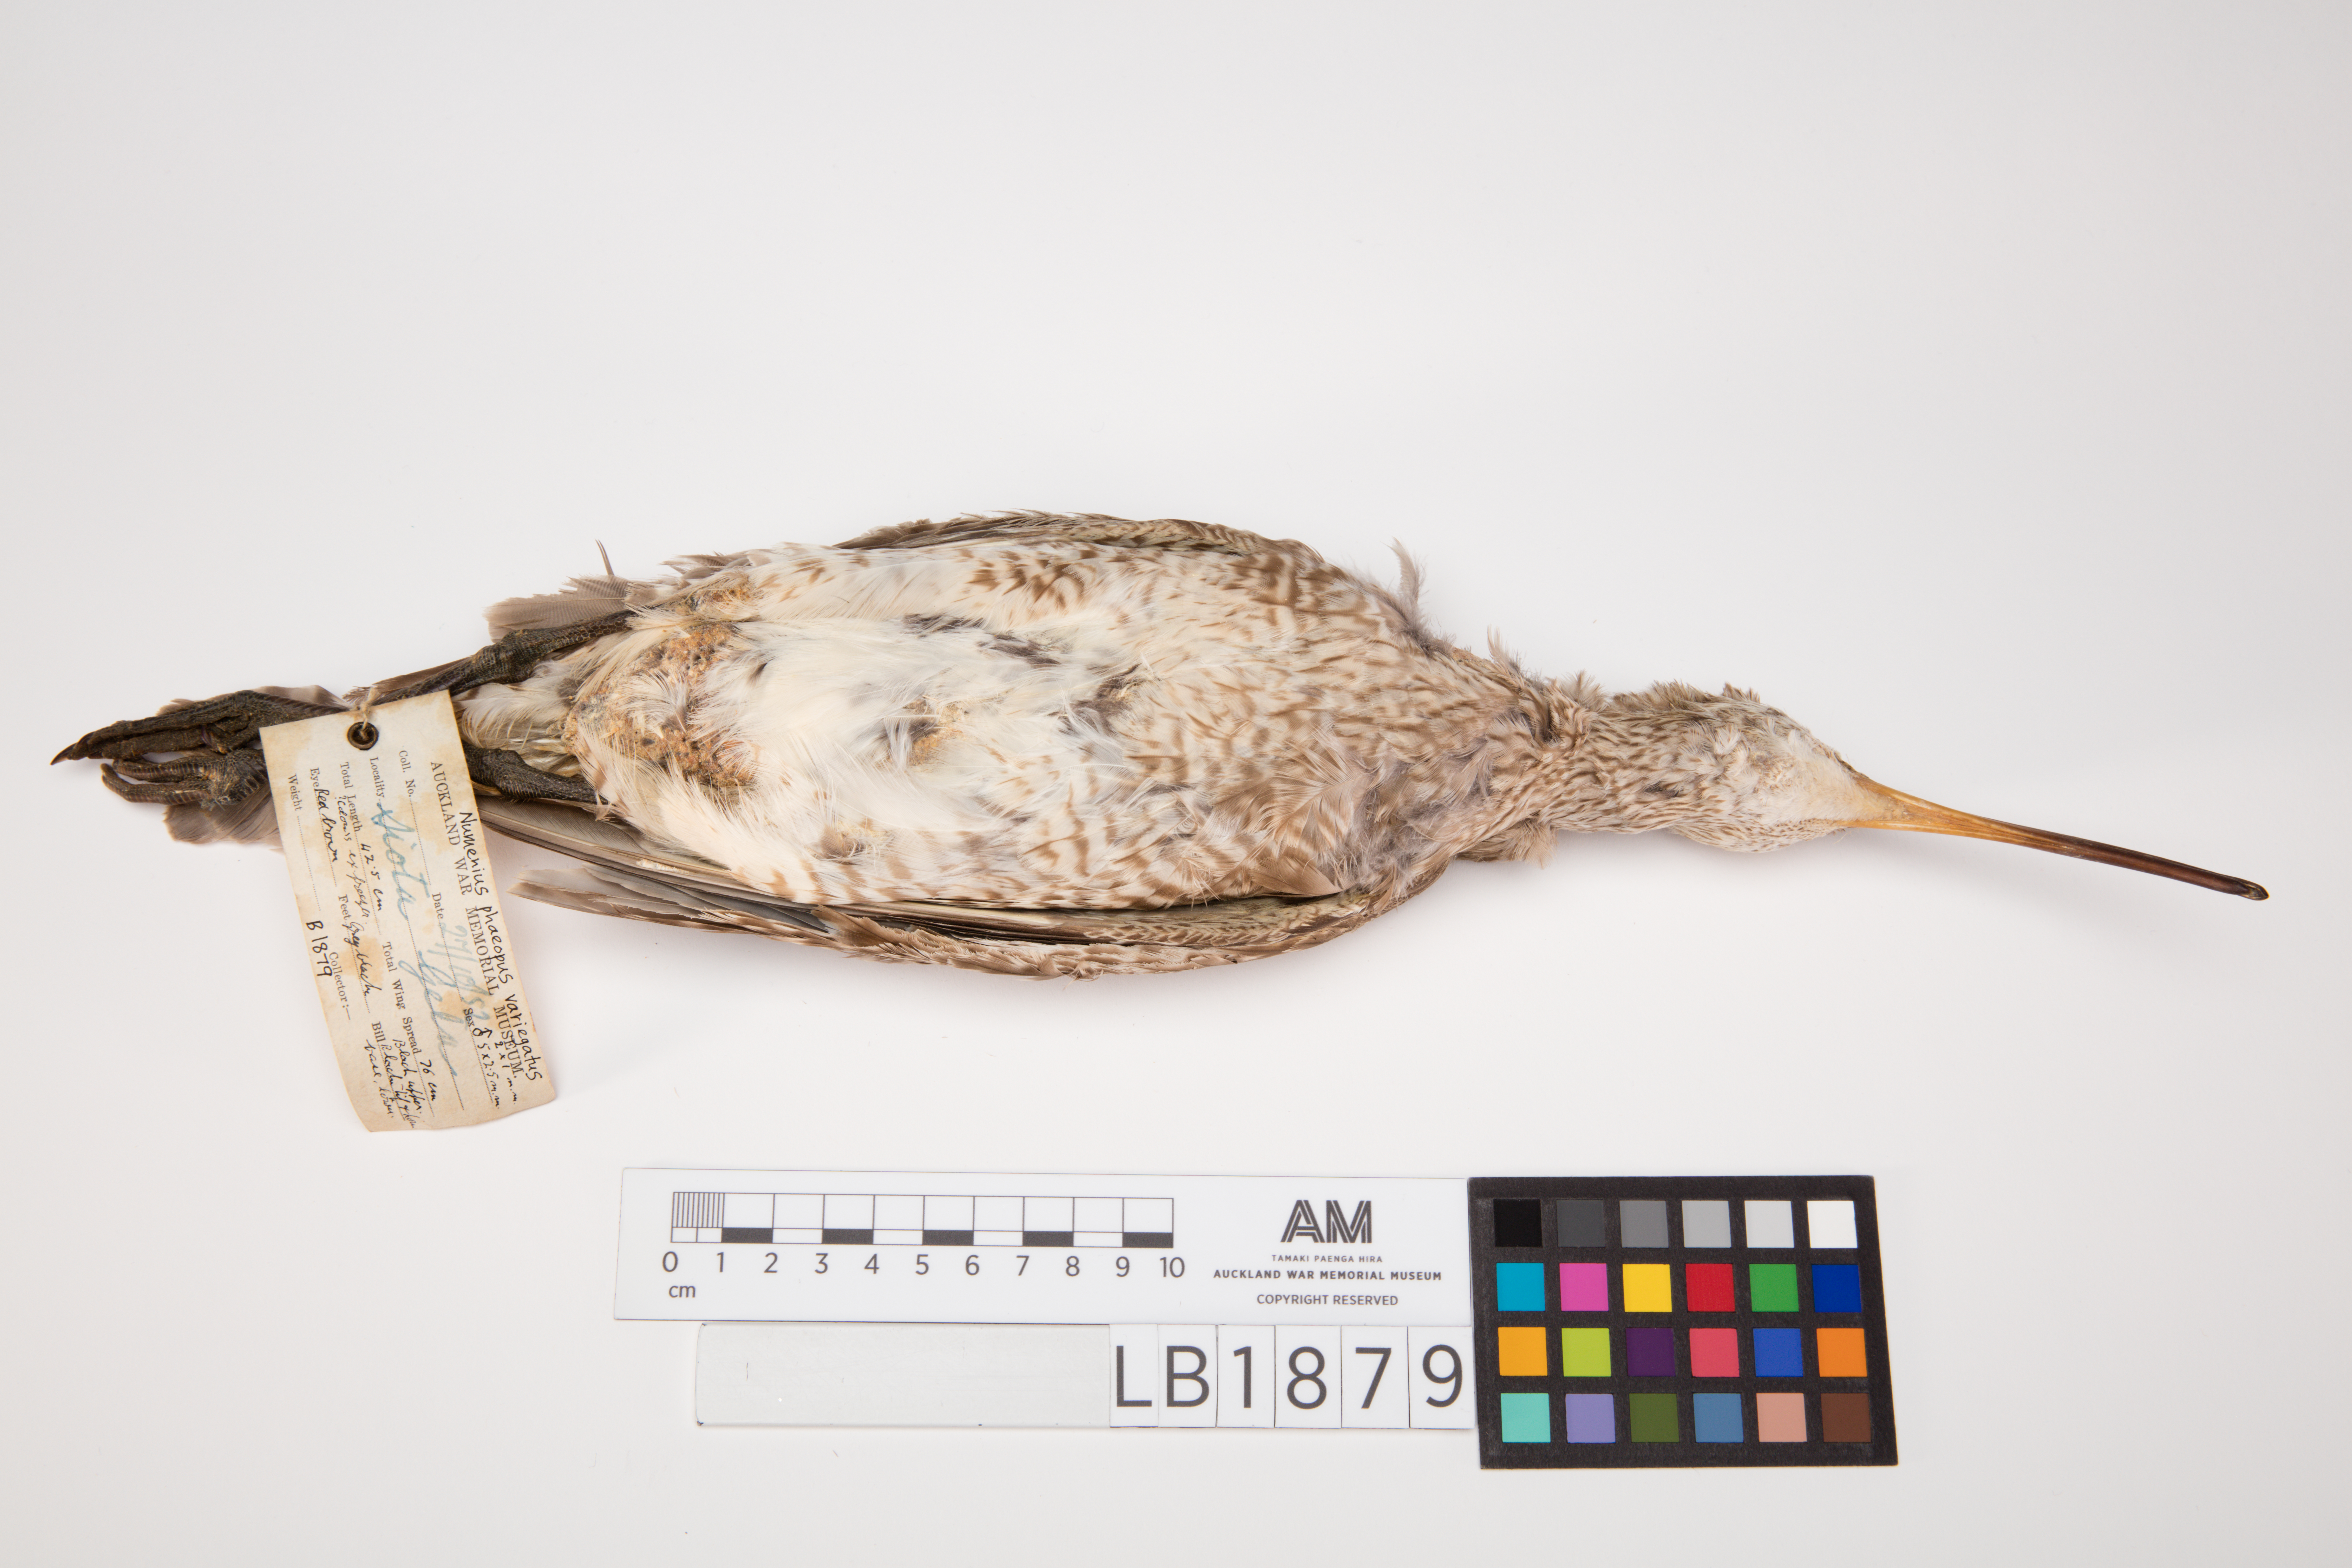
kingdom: Animalia
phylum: Chordata
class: Aves
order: Charadriiformes
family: Scolopacidae
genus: Numenius
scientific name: Numenius phaeopus
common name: Whimbrel
